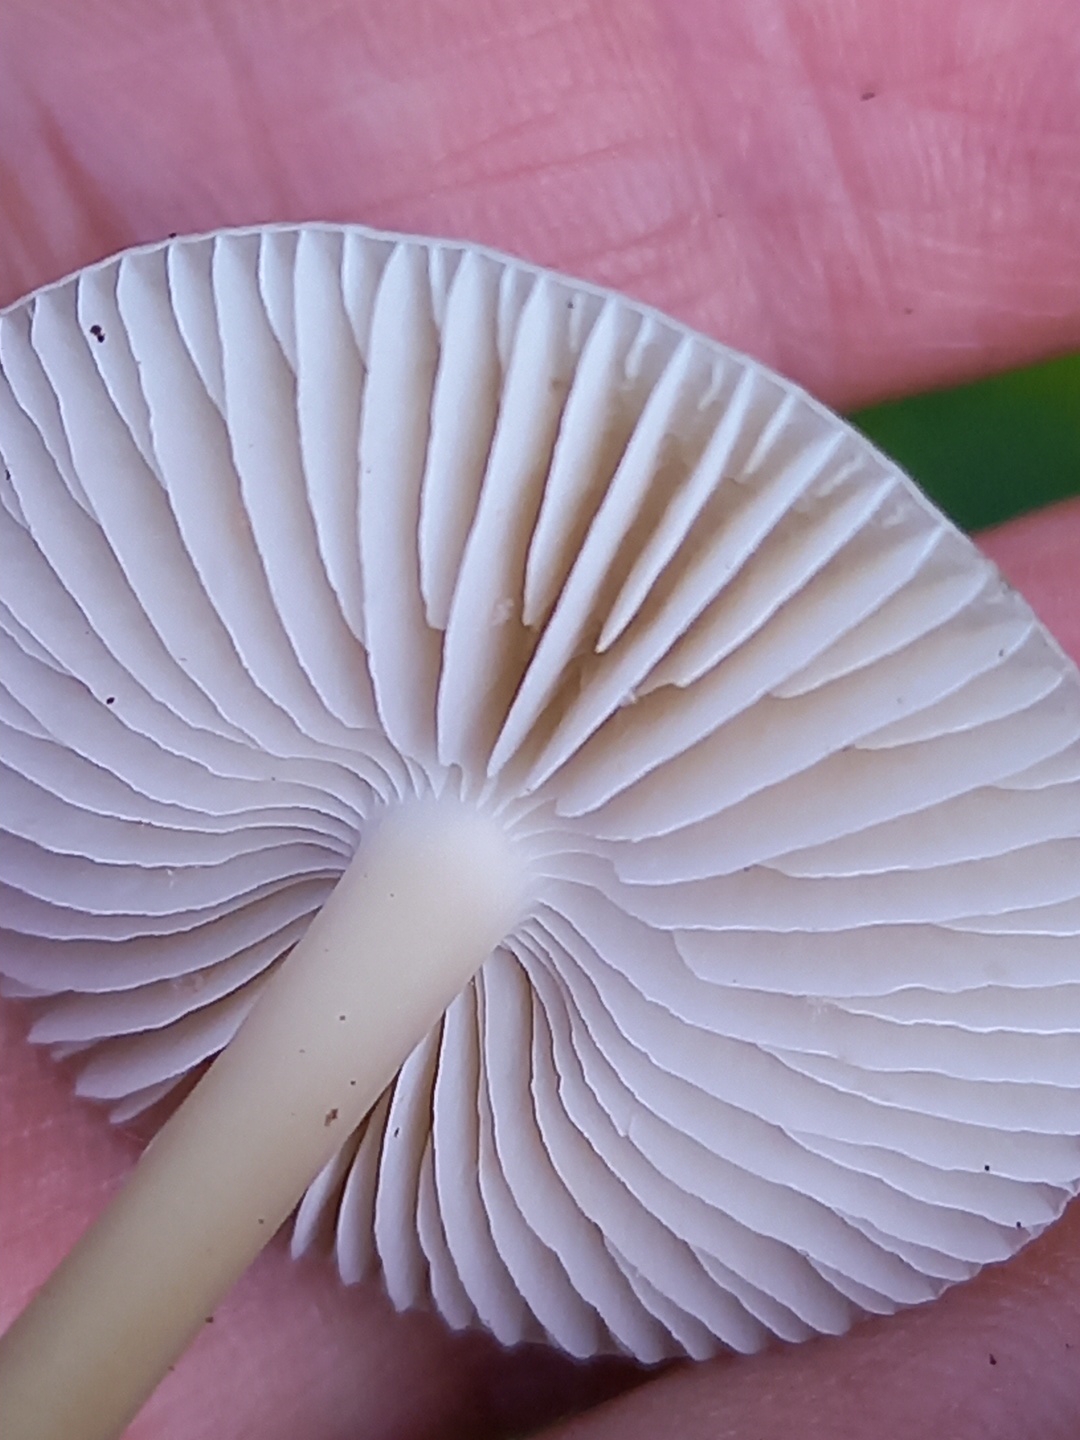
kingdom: Fungi
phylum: Basidiomycota
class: Agaricomycetes
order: Agaricales
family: Mycenaceae
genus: Mycena
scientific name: Mycena galericulata
